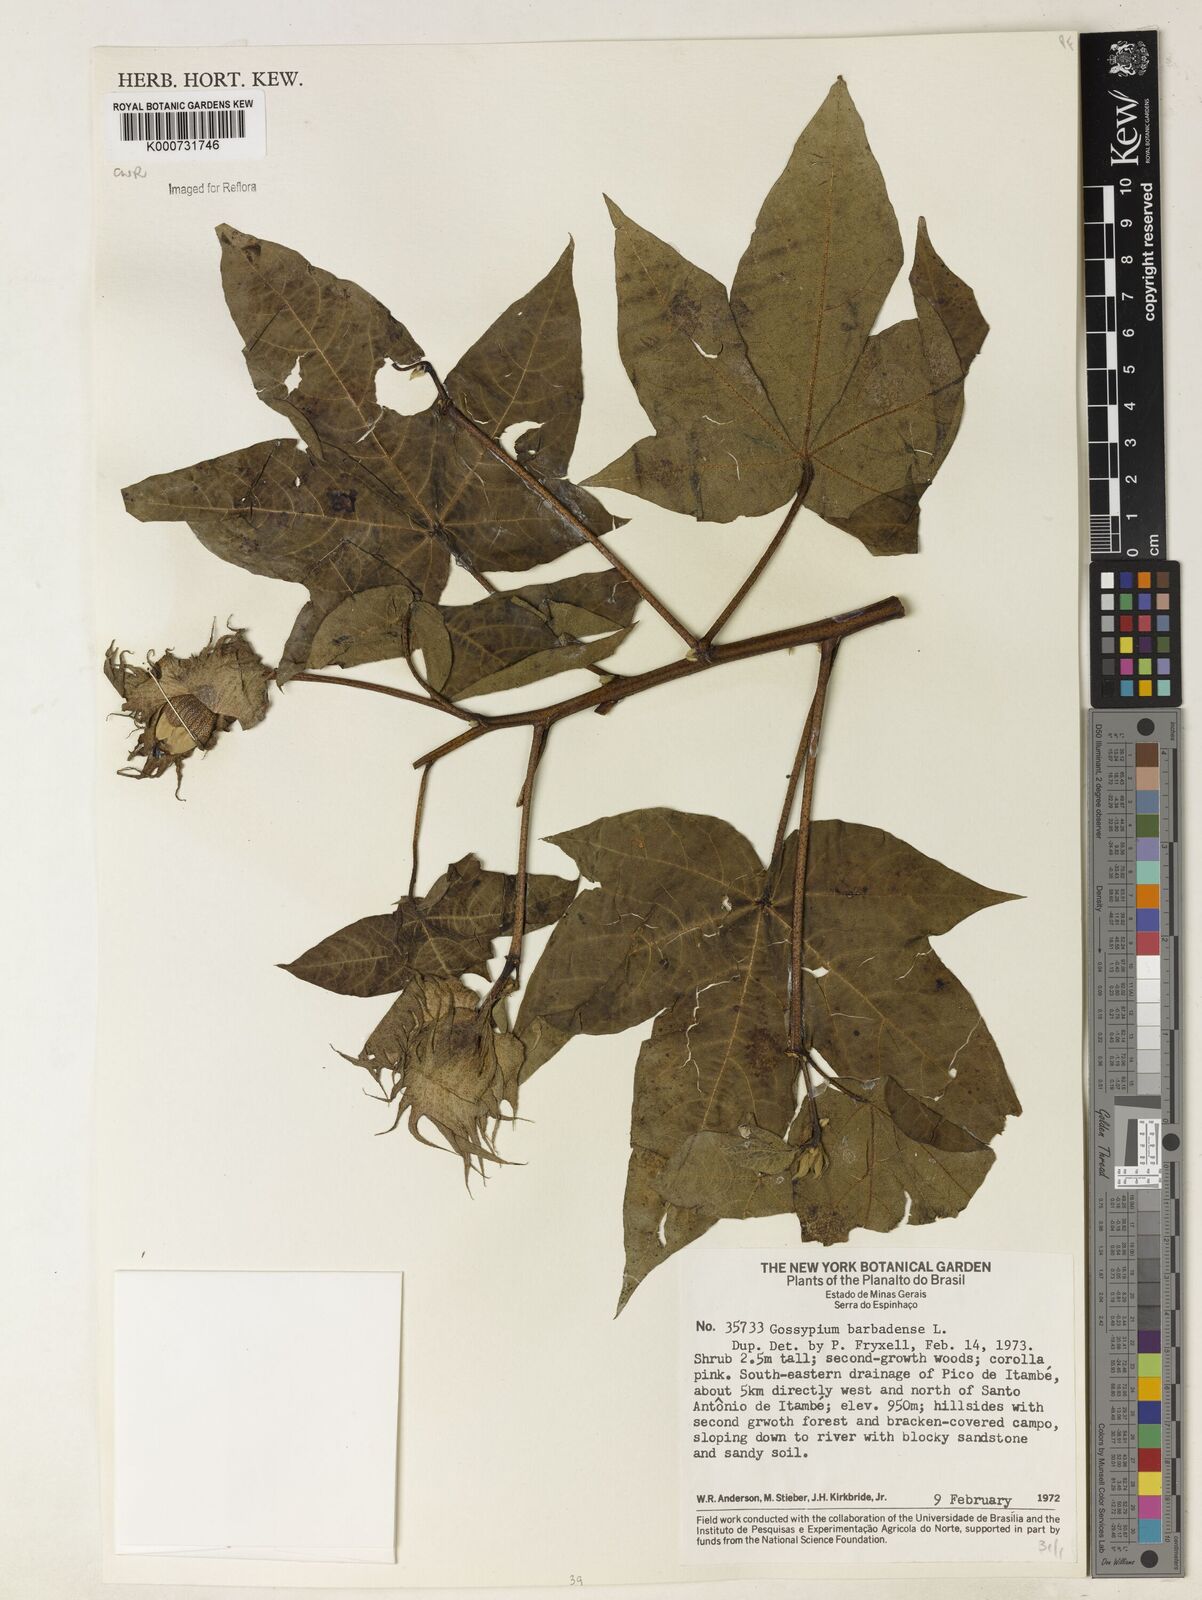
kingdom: Plantae
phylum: Tracheophyta
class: Magnoliopsida
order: Malvales
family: Malvaceae
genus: Gossypium
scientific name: Gossypium barbadense
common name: Creole cotton
